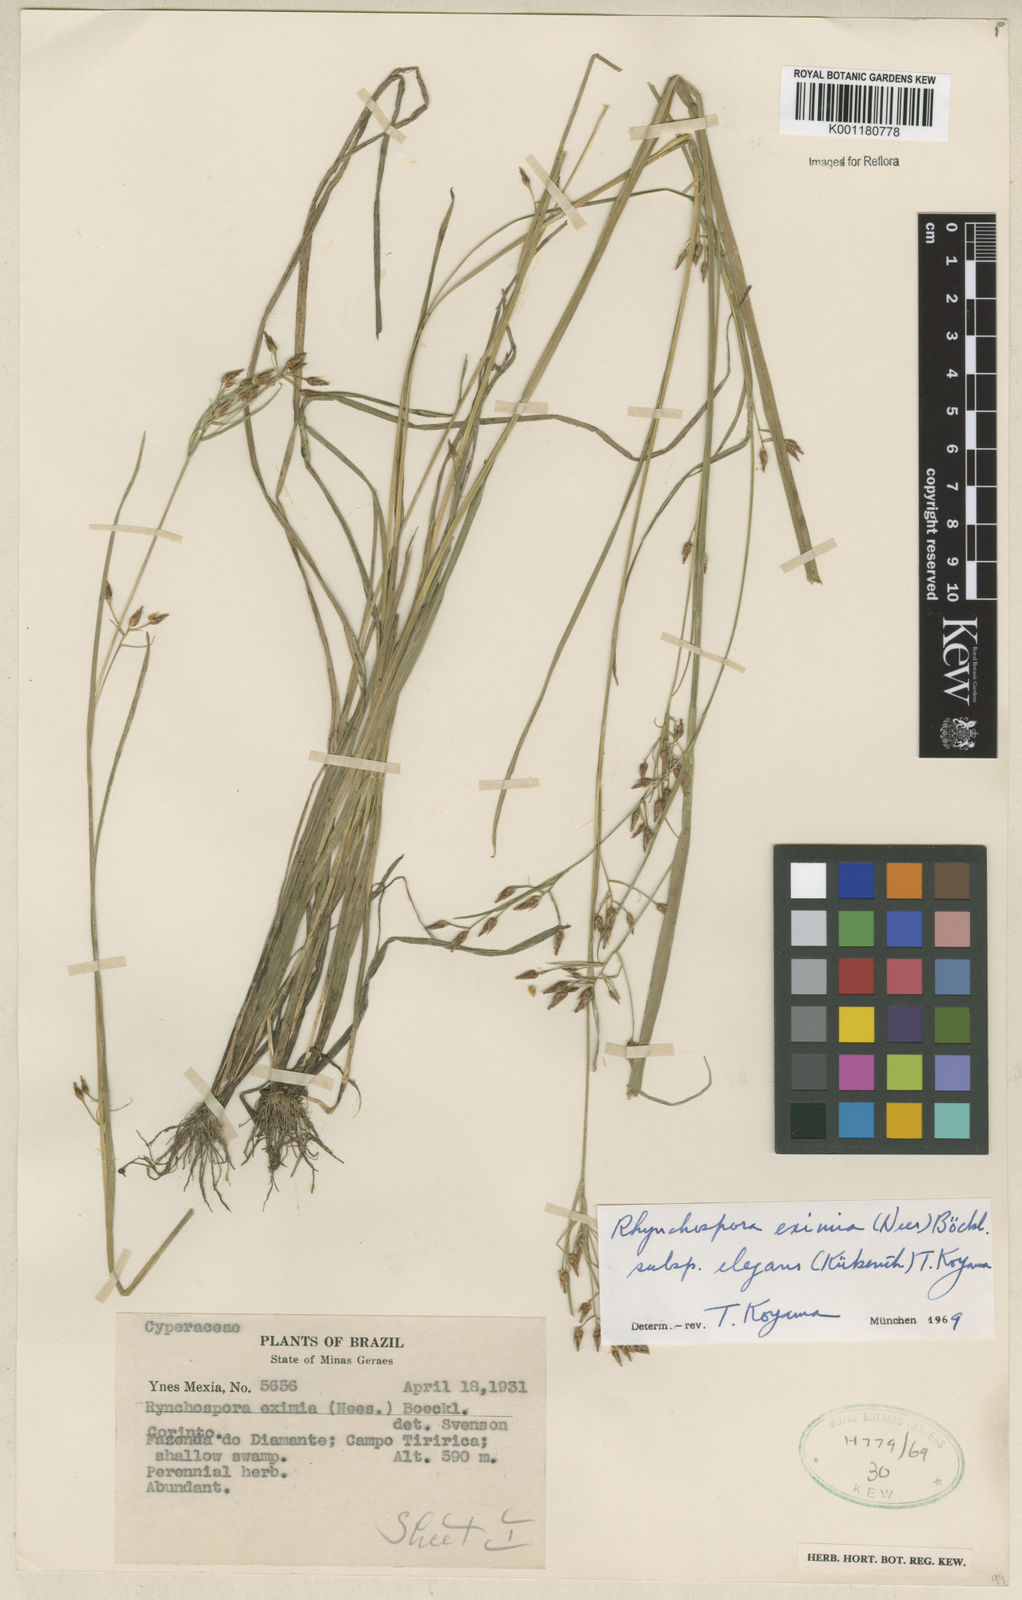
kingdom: Plantae
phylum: Tracheophyta
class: Liliopsida
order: Poales
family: Cyperaceae
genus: Rhynchospora
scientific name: Rhynchospora eximia
